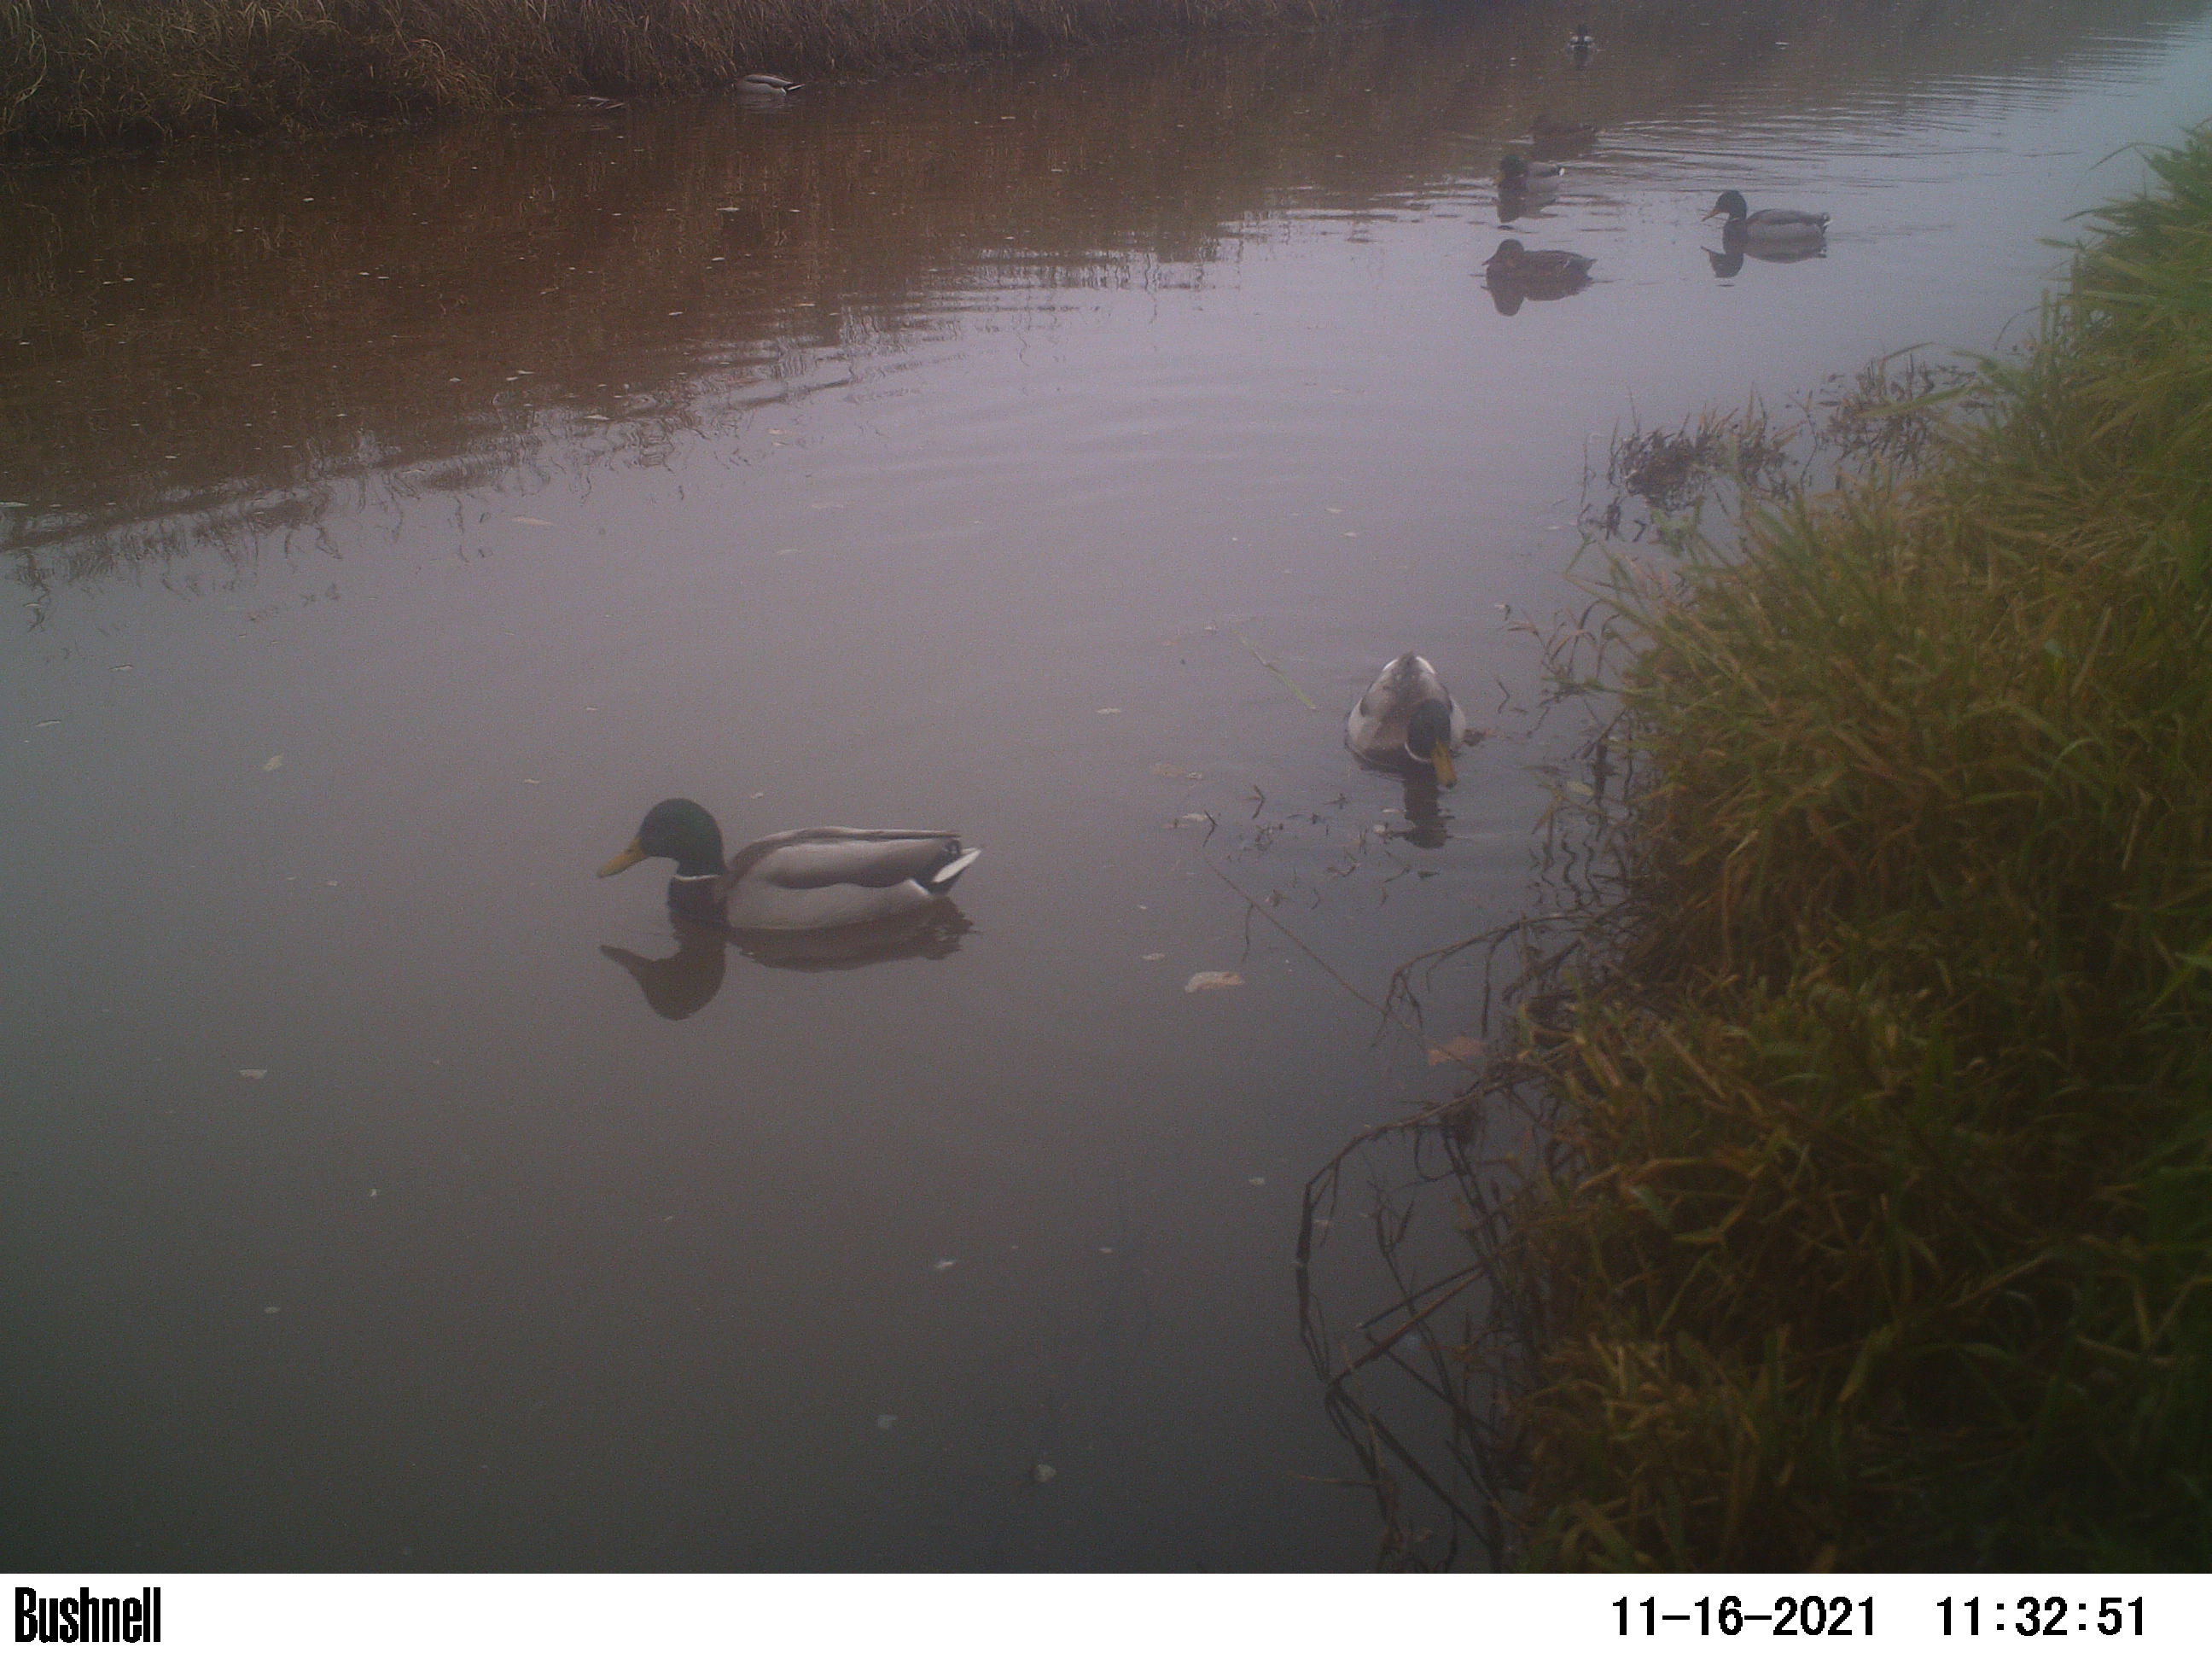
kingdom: Animalia
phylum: Chordata
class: Aves
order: Anseriformes
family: Anatidae
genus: Anas
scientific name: Anas
